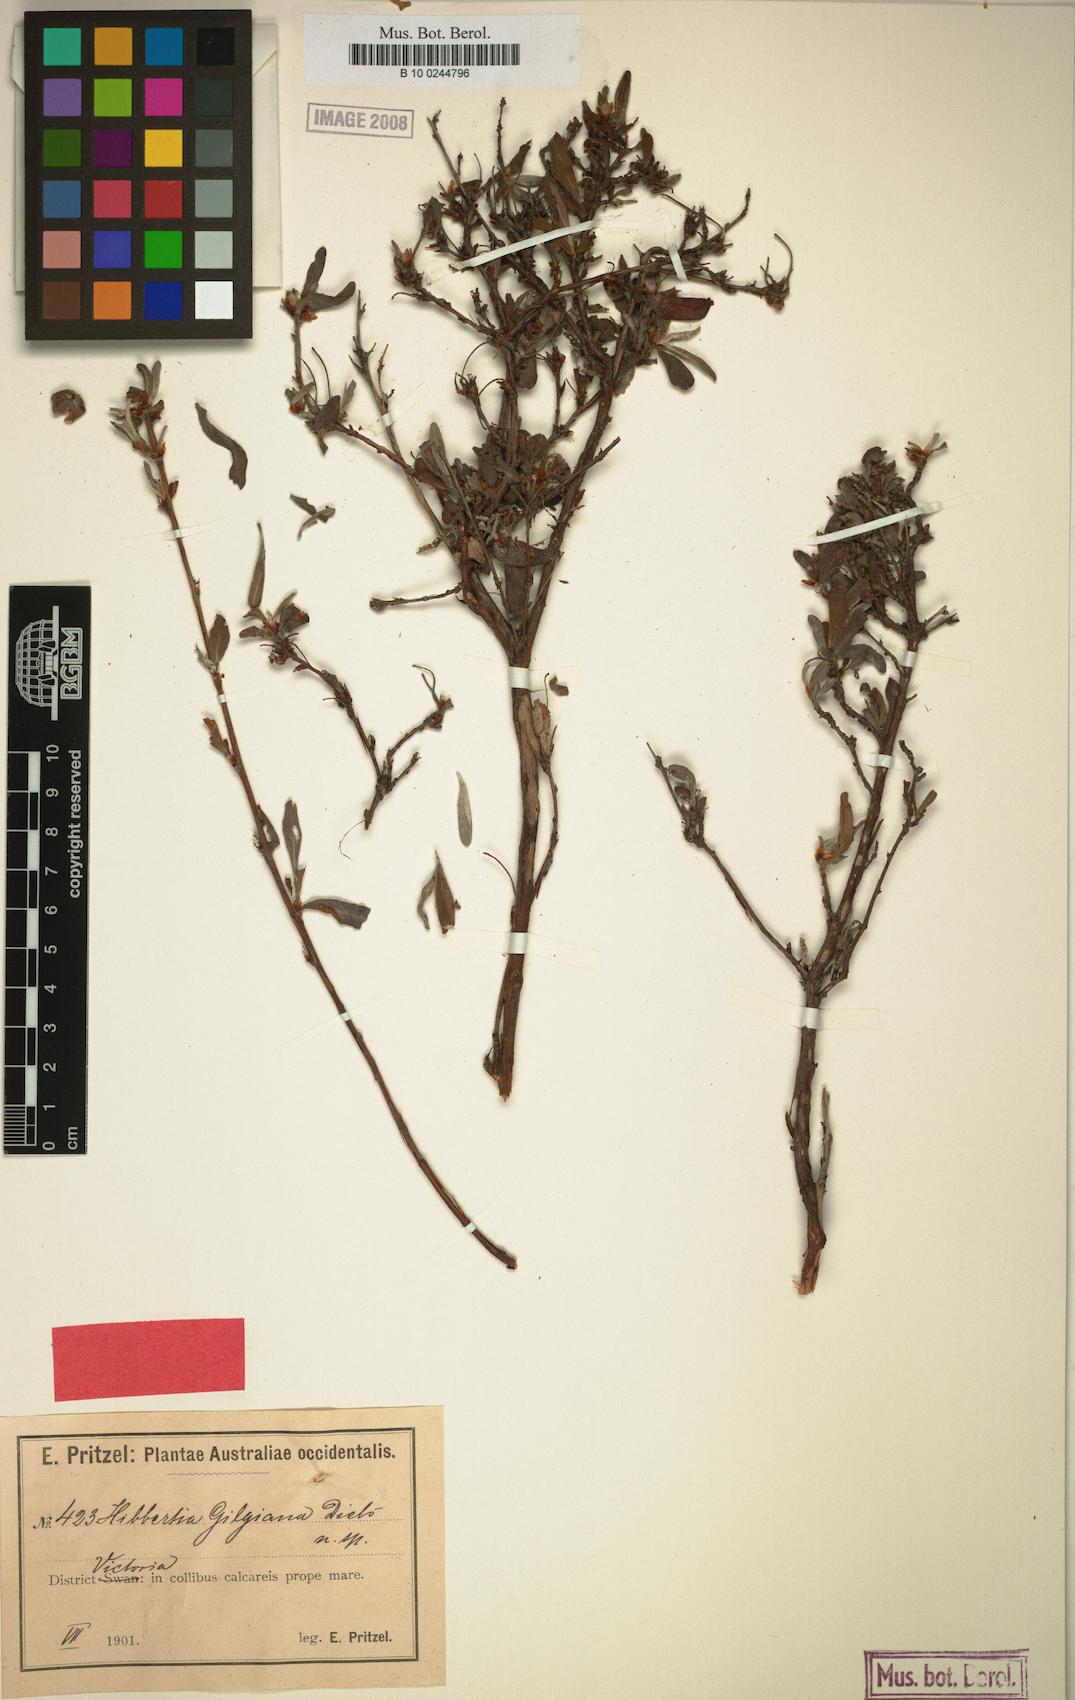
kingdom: Plantae
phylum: Tracheophyta
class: Magnoliopsida
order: Dilleniales
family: Dilleniaceae
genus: Hibbertia
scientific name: Hibbertia pilosa
